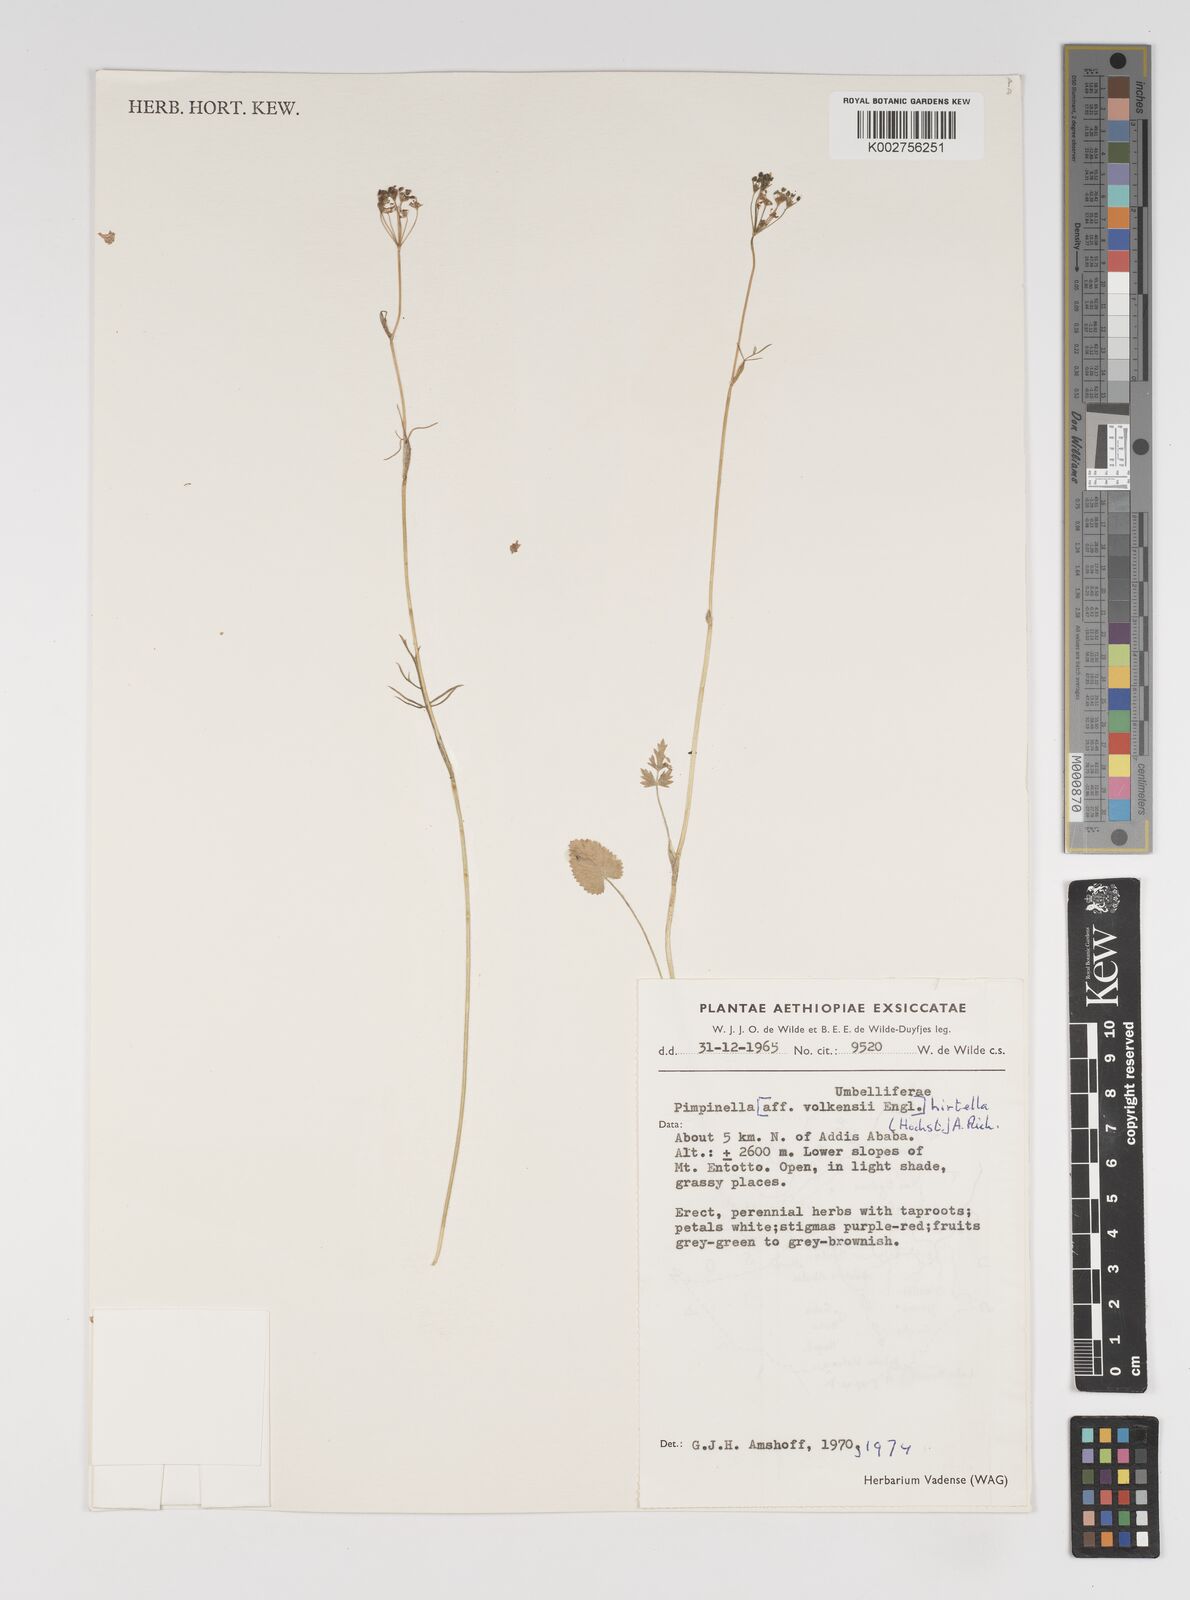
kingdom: Plantae
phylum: Tracheophyta
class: Magnoliopsida
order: Apiales
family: Apiaceae
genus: Pimpinella
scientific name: Pimpinella hirtella
